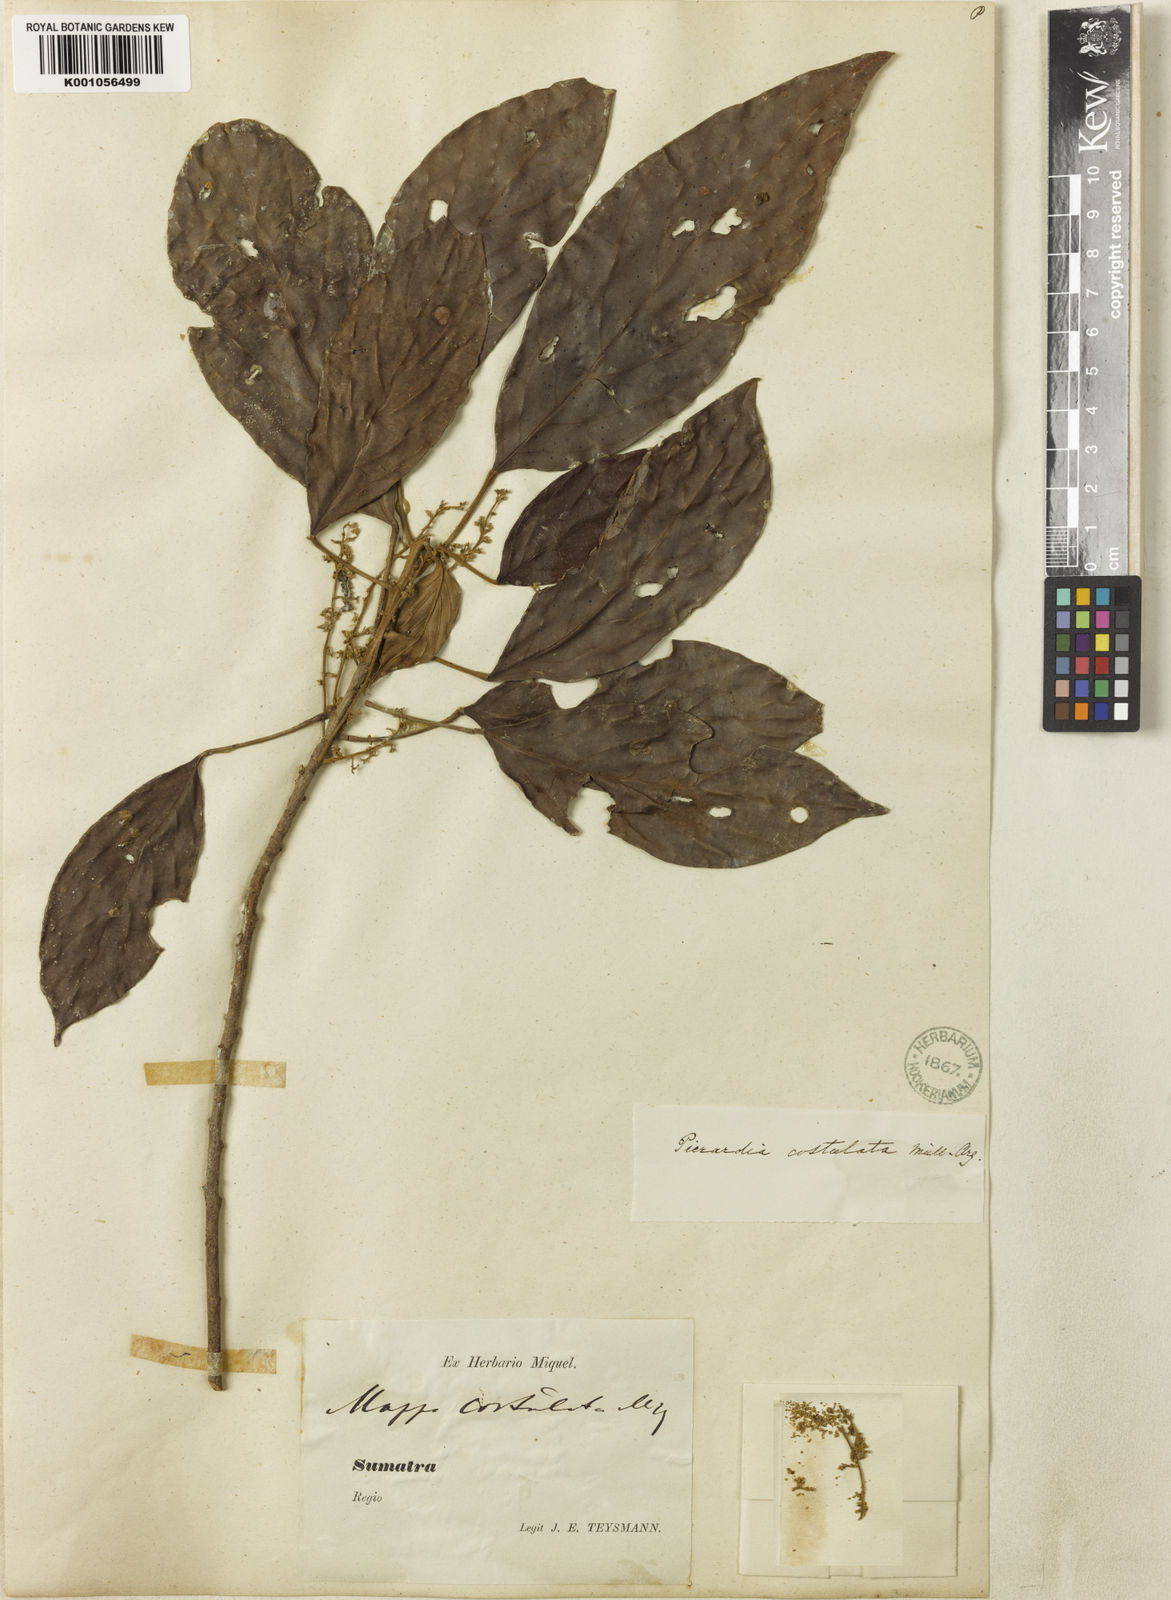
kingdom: Plantae
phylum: Tracheophyta
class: Magnoliopsida
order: Malpighiales
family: Phyllanthaceae
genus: Baccaurea
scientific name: Baccaurea
